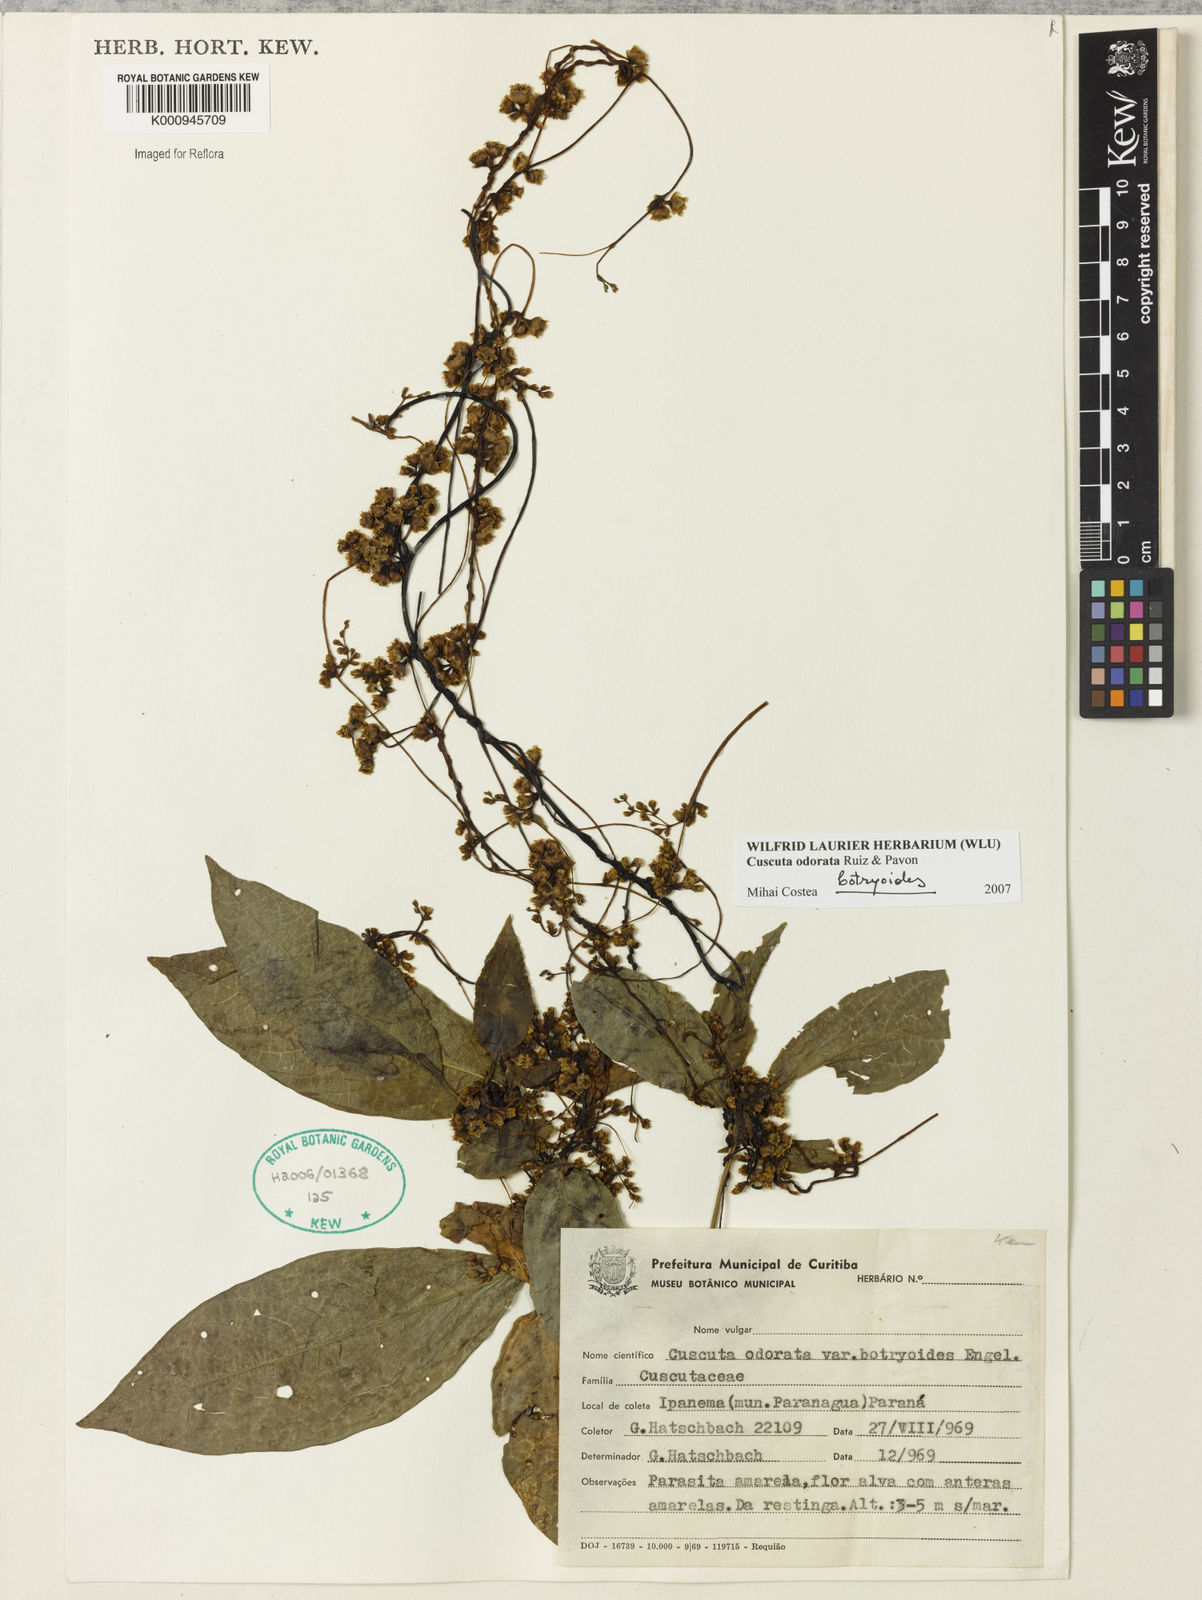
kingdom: Plantae
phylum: Tracheophyta
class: Magnoliopsida
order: Solanales
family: Convolvulaceae
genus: Cuscuta
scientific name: Cuscuta odorata
